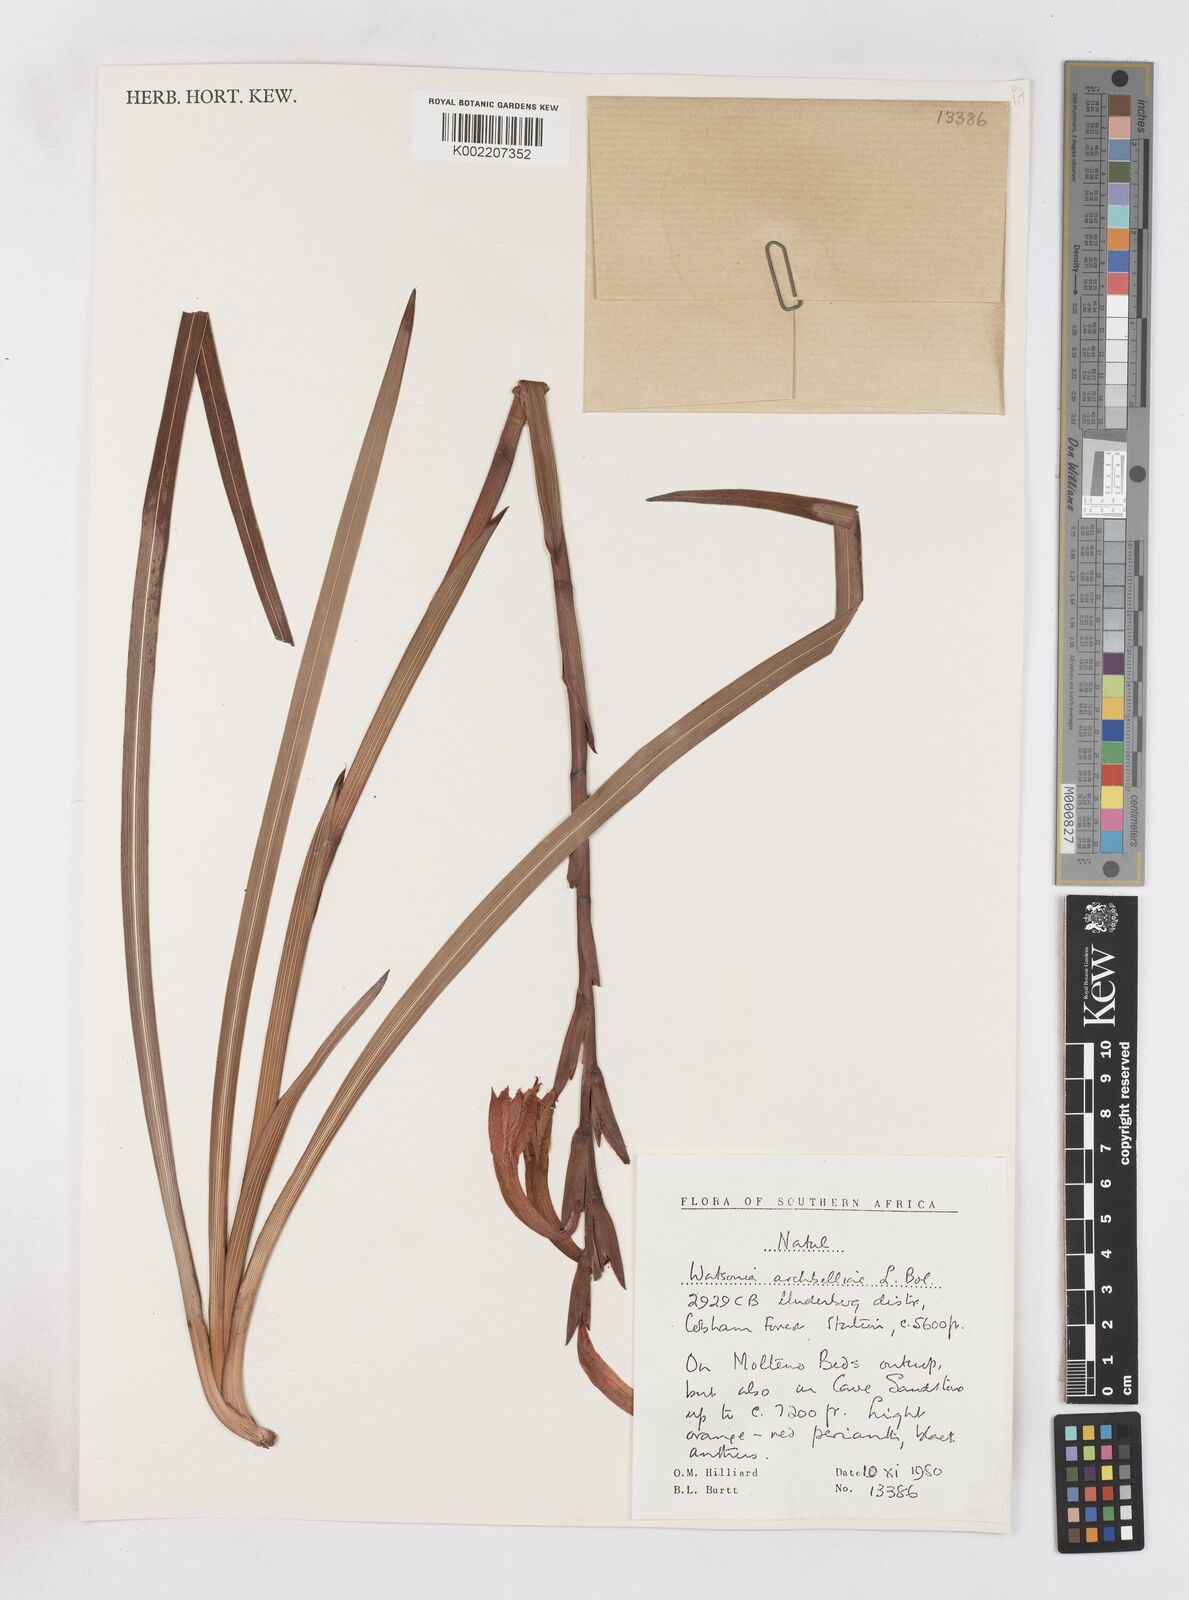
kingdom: Plantae
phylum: Tracheophyta
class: Liliopsida
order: Asparagales
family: Iridaceae
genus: Watsonia
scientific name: Watsonia pillansii
